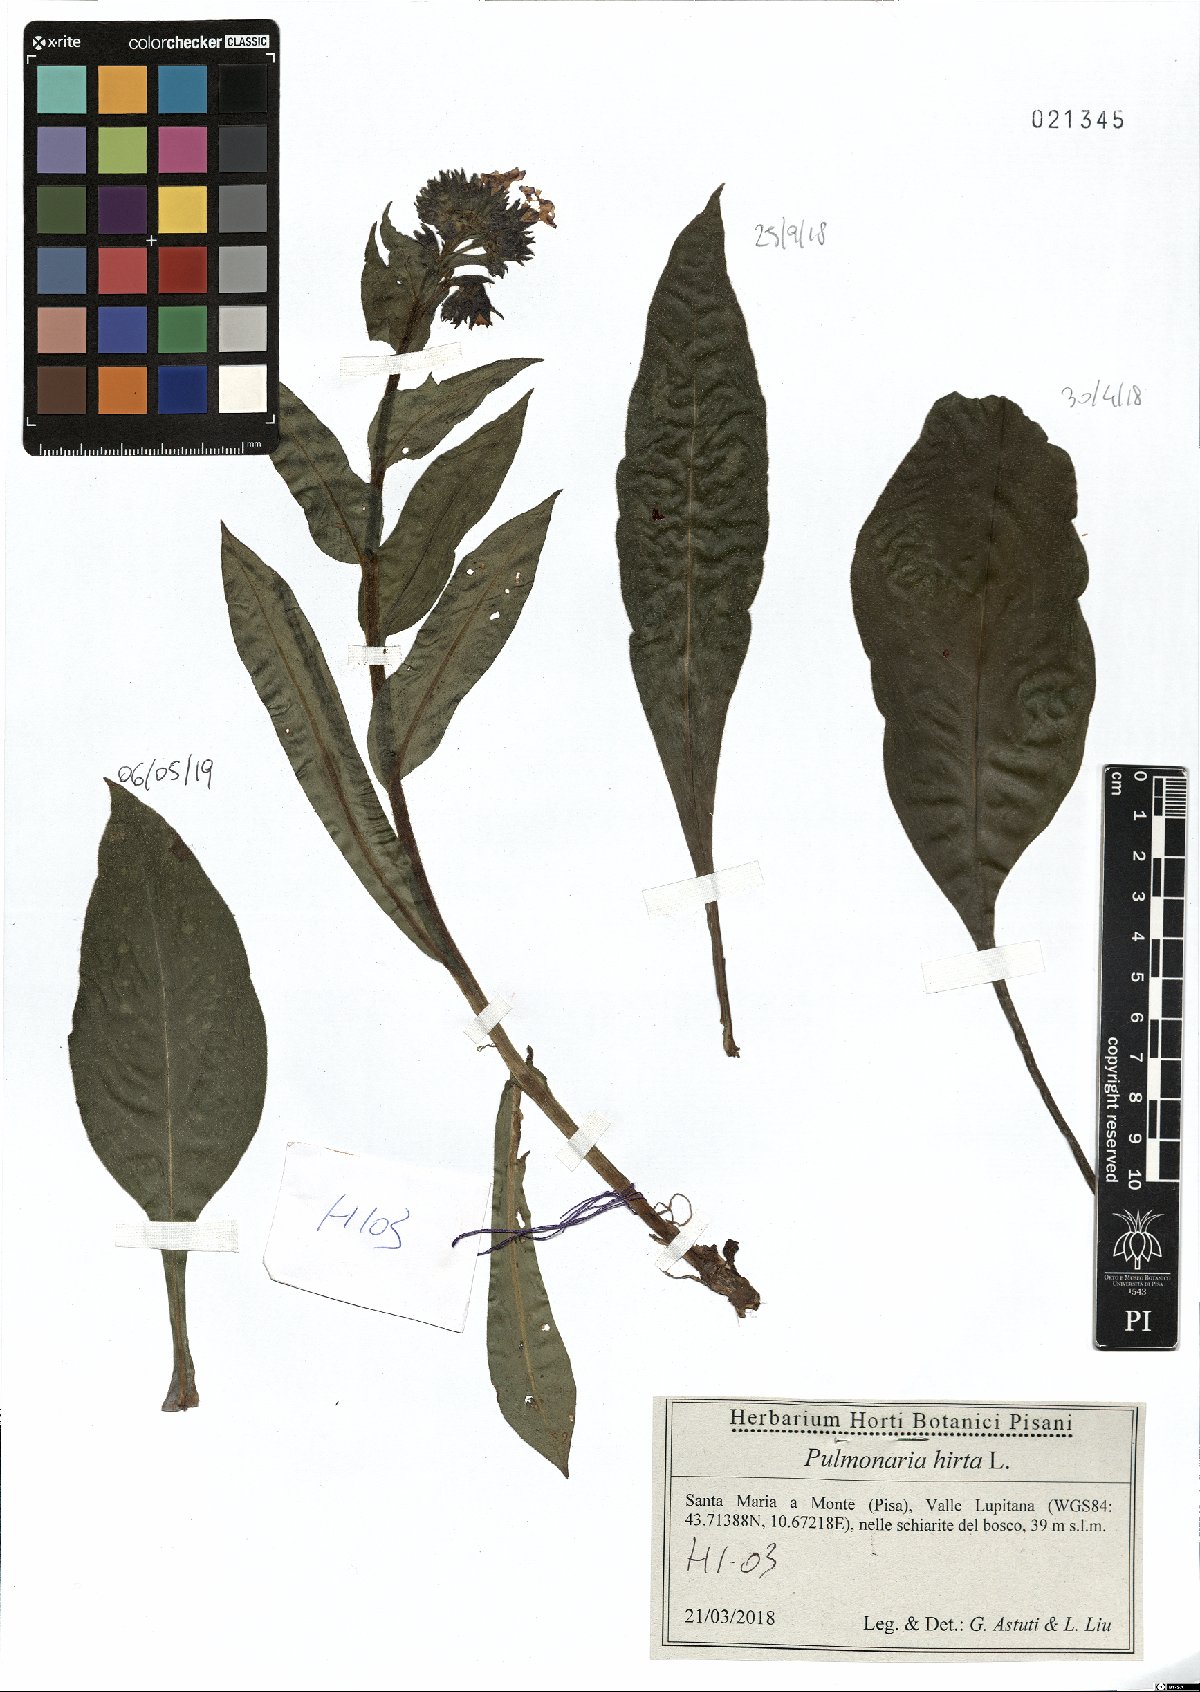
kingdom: Plantae
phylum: Tracheophyta
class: Magnoliopsida
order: Boraginales
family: Boraginaceae
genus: Pulmonaria
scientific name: Pulmonaria hirta
